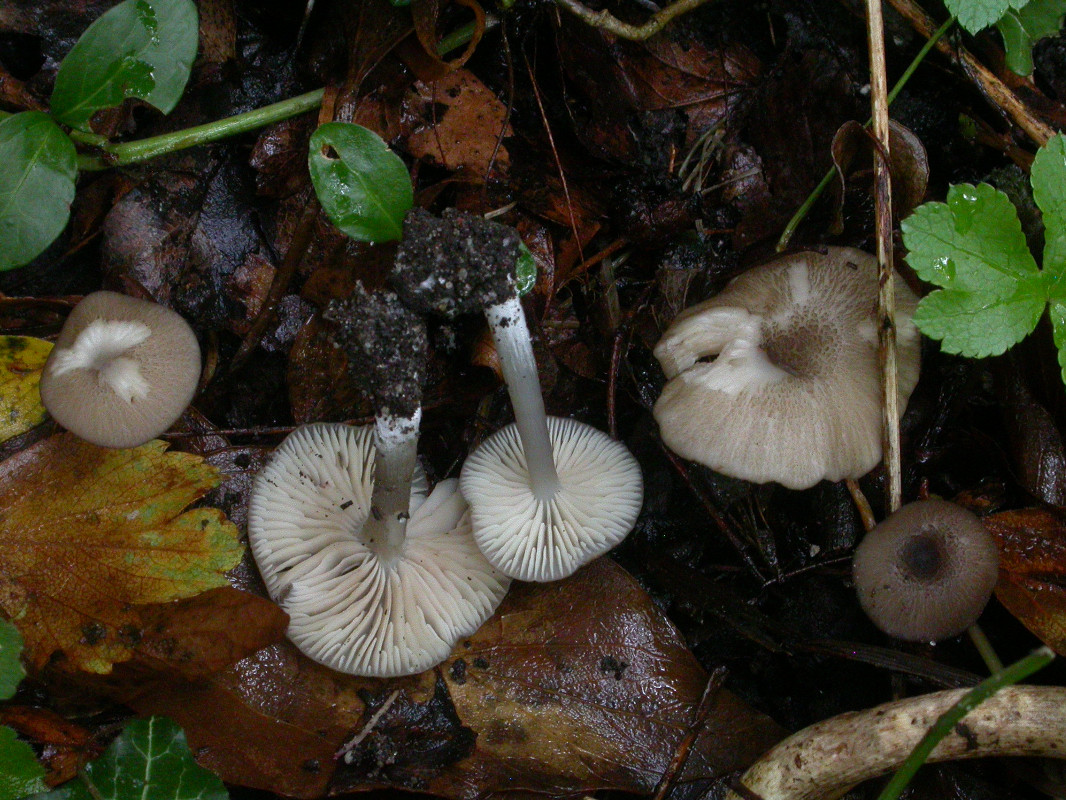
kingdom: Fungi
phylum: Basidiomycota
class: Agaricomycetes
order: Agaricales
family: Entolomataceae
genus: Entoloma
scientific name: Entoloma mediterraneense
